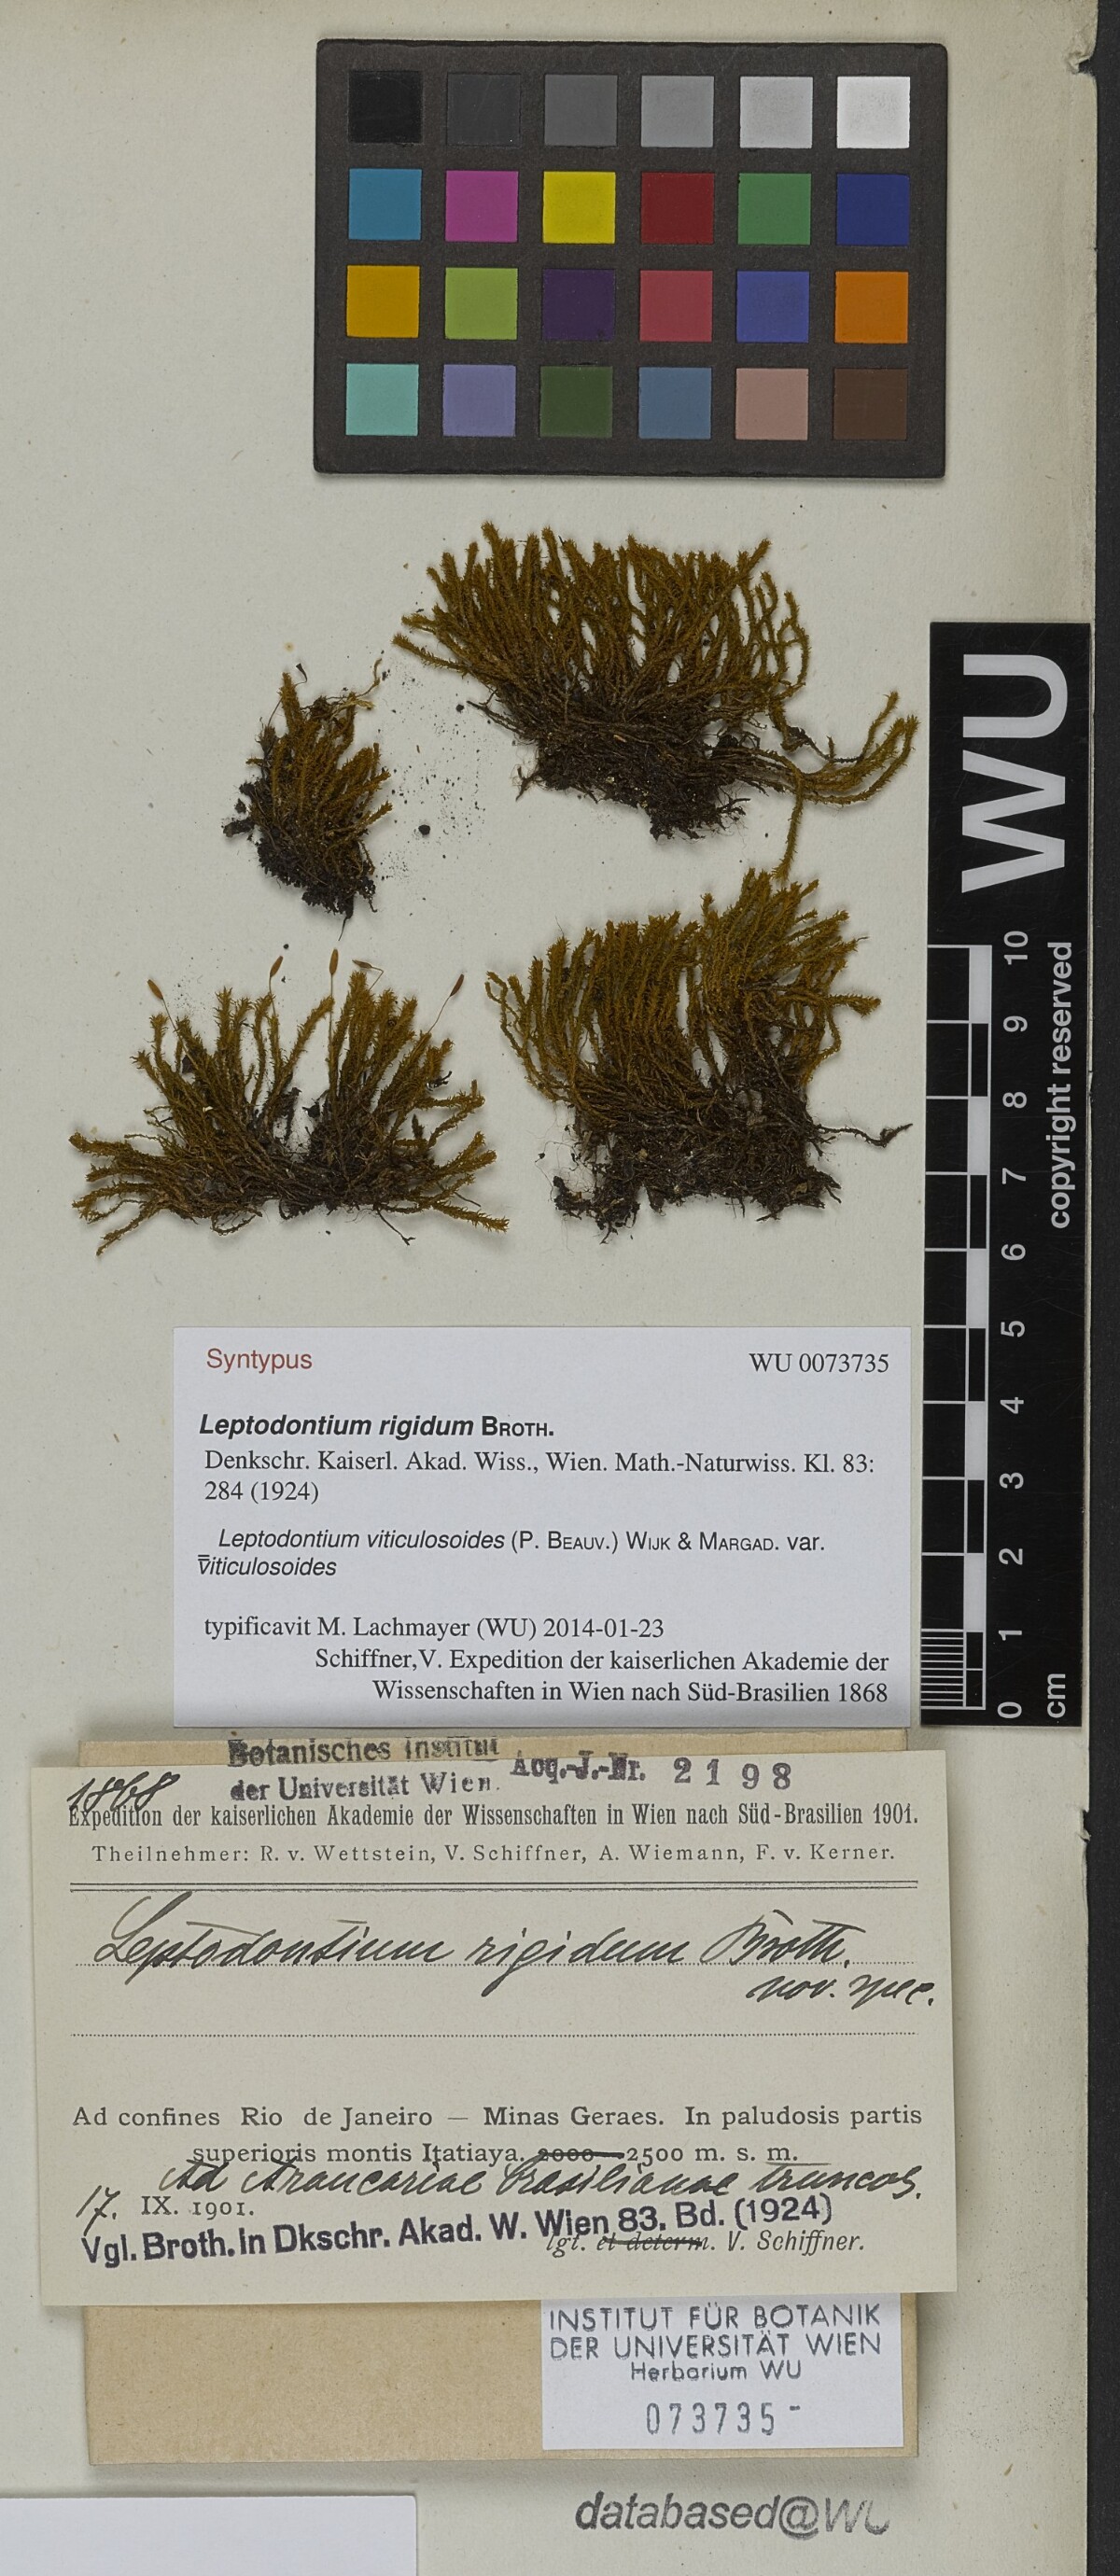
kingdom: Plantae
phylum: Bryophyta
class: Bryopsida
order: Pottiales
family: Pottiaceae
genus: Leptodontium
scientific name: Leptodontium viticulosoides
